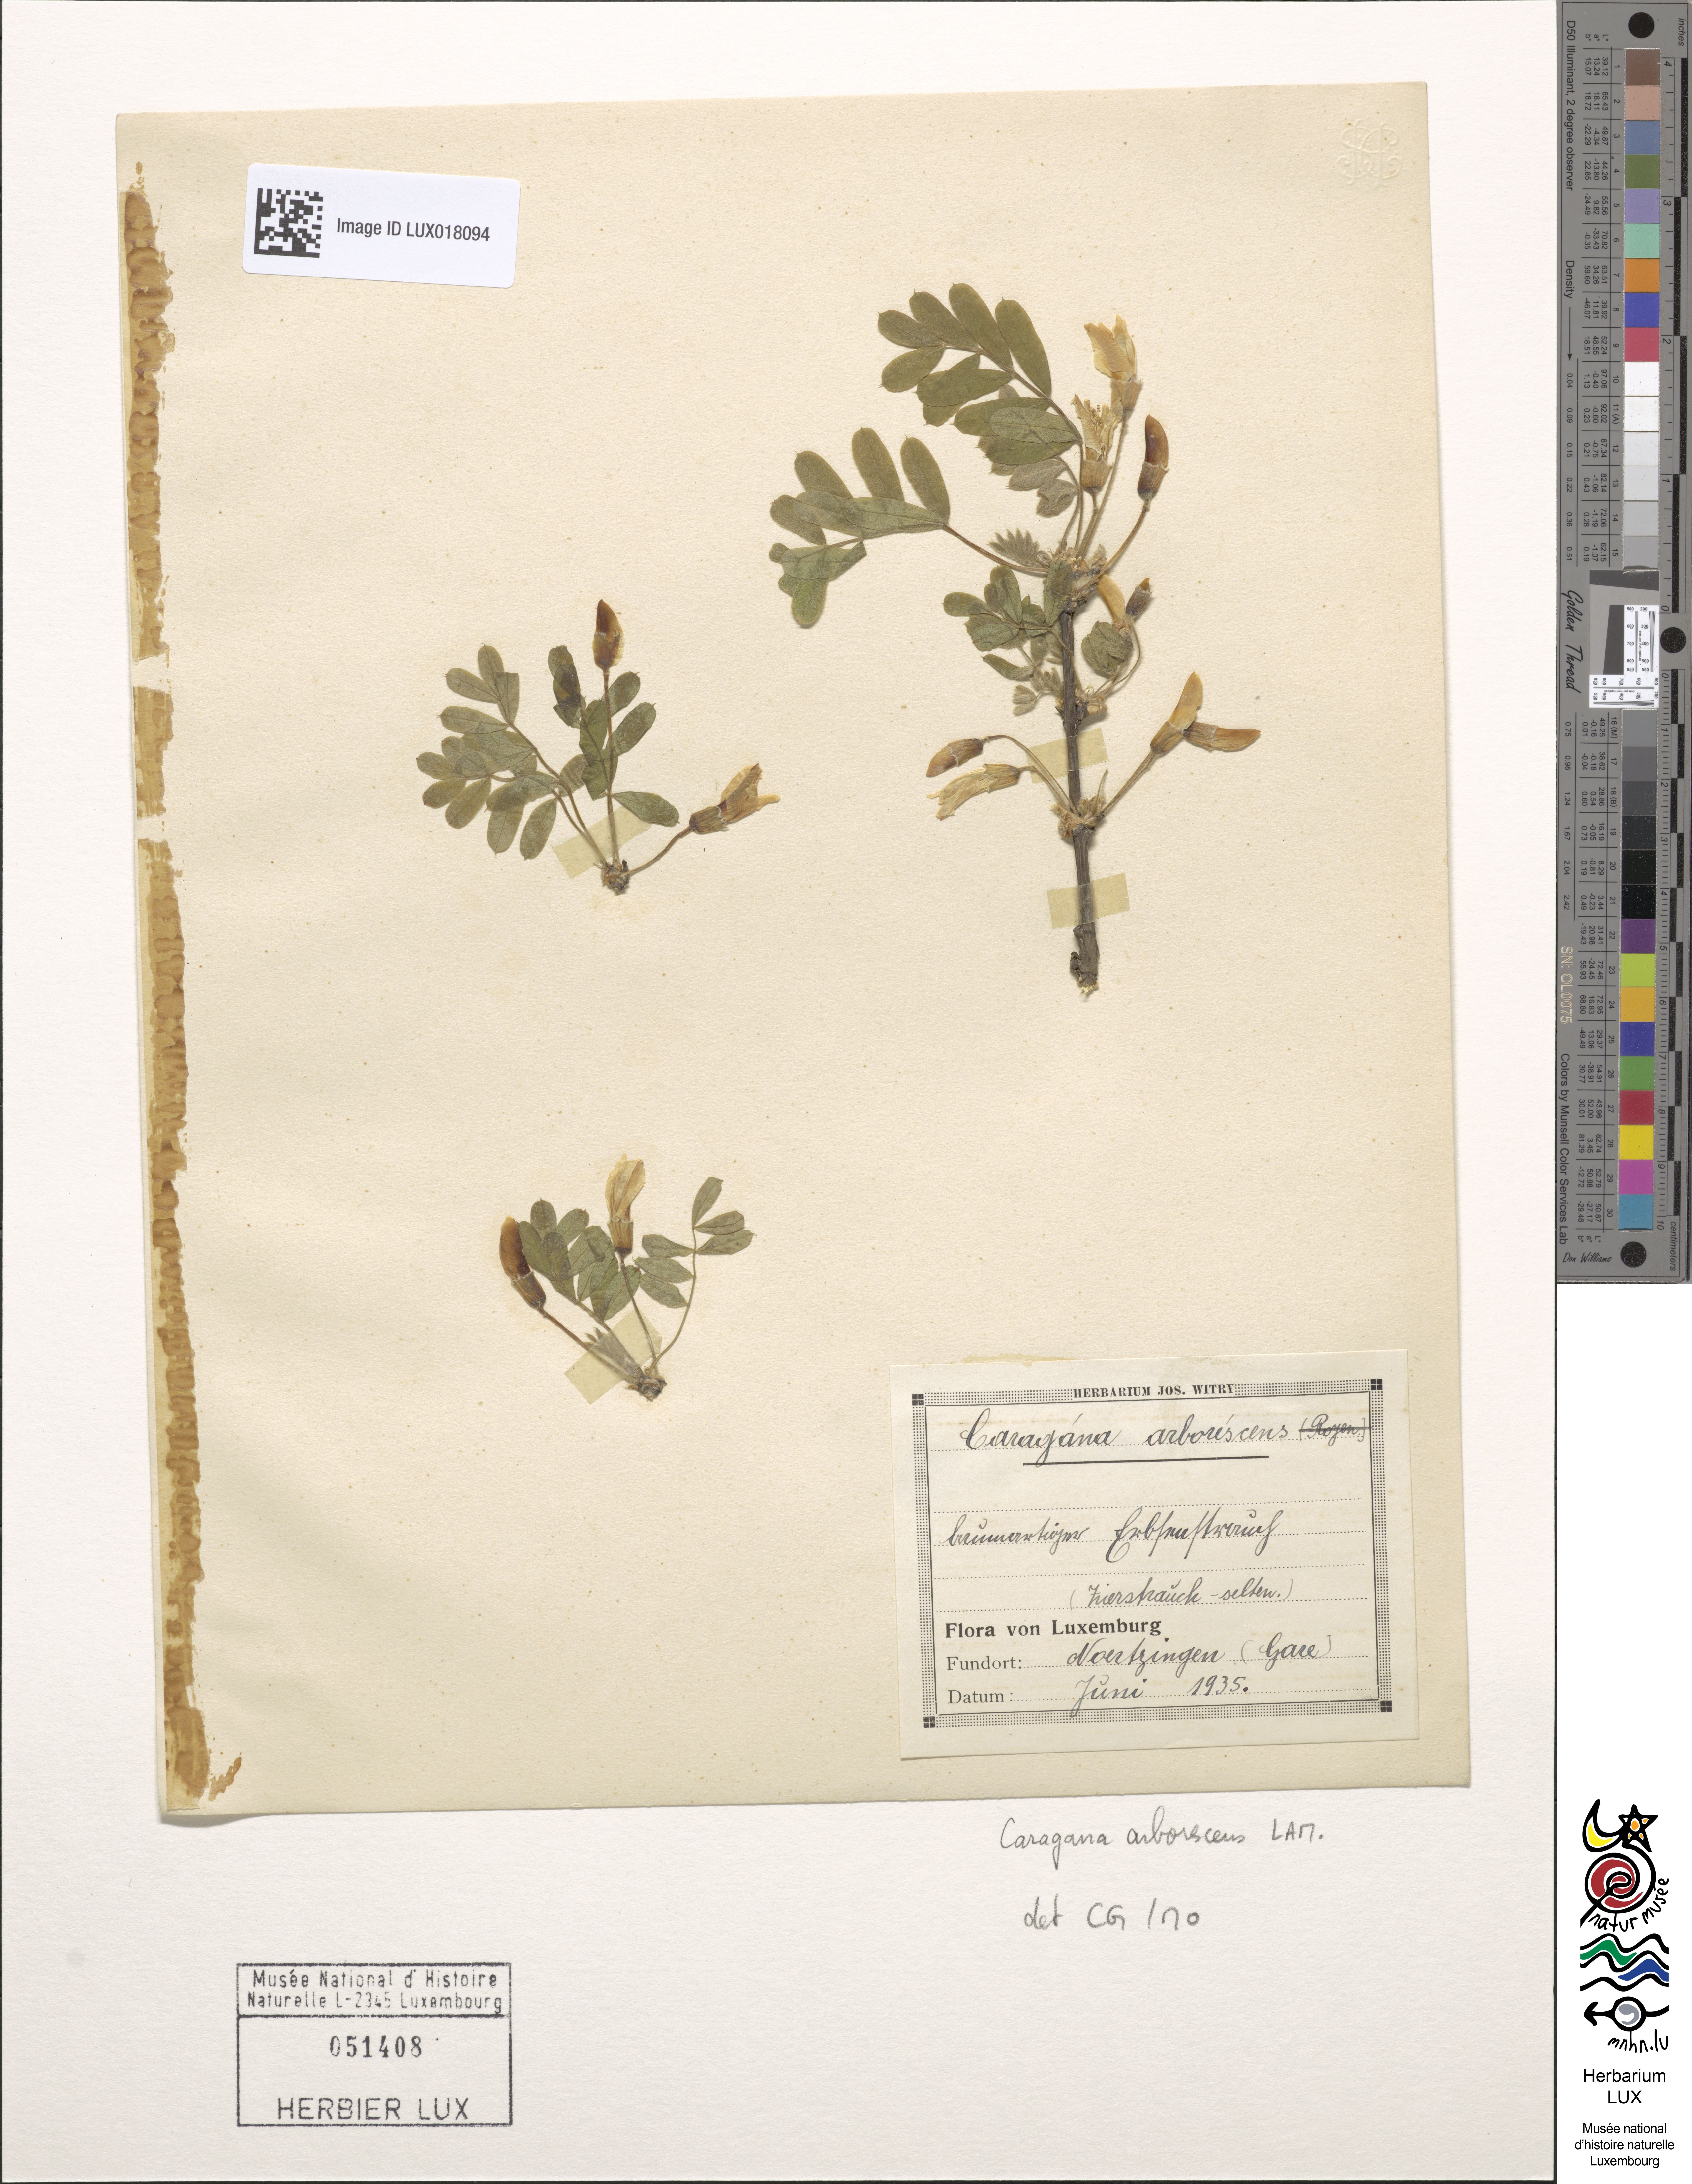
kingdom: Plantae
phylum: Tracheophyta
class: Magnoliopsida
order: Fabales
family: Fabaceae
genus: Caragana
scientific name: Caragana arborescens
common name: Siberian peashrub
